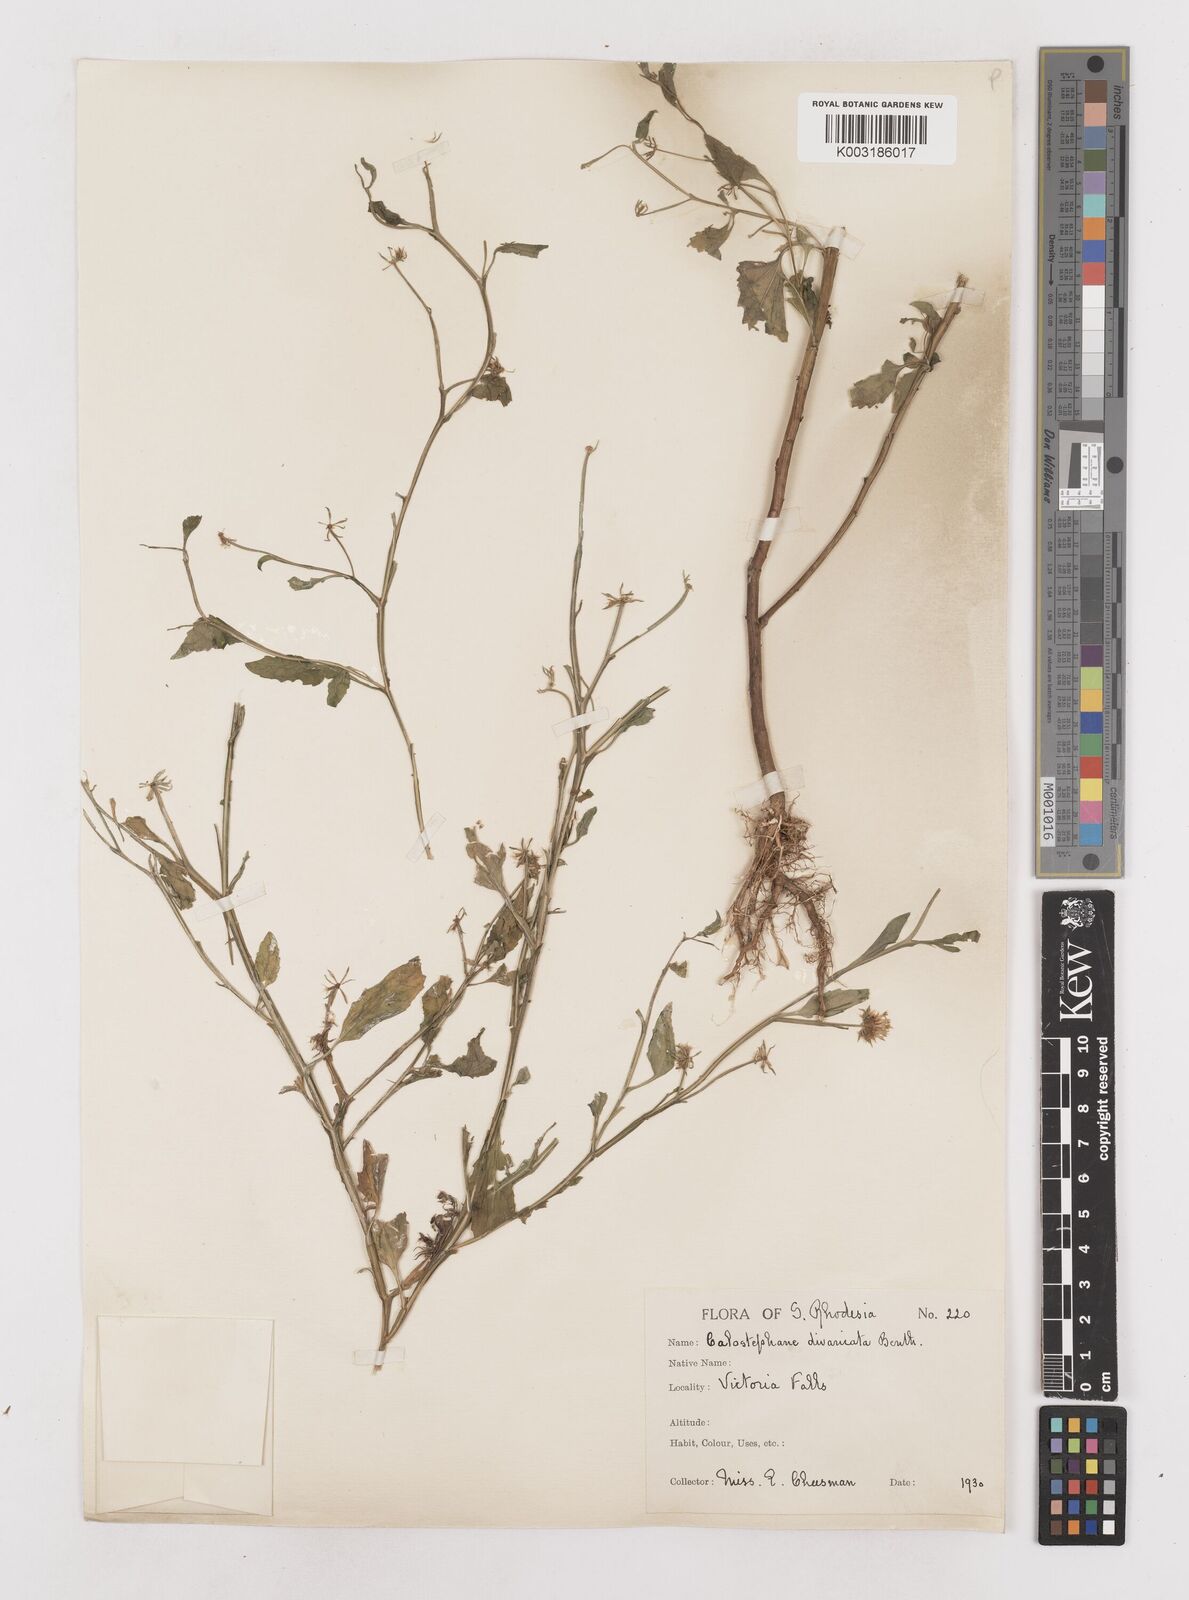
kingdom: Plantae
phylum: Tracheophyta
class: Magnoliopsida
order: Asterales
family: Asteraceae
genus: Calostephane
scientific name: Calostephane divaricata
